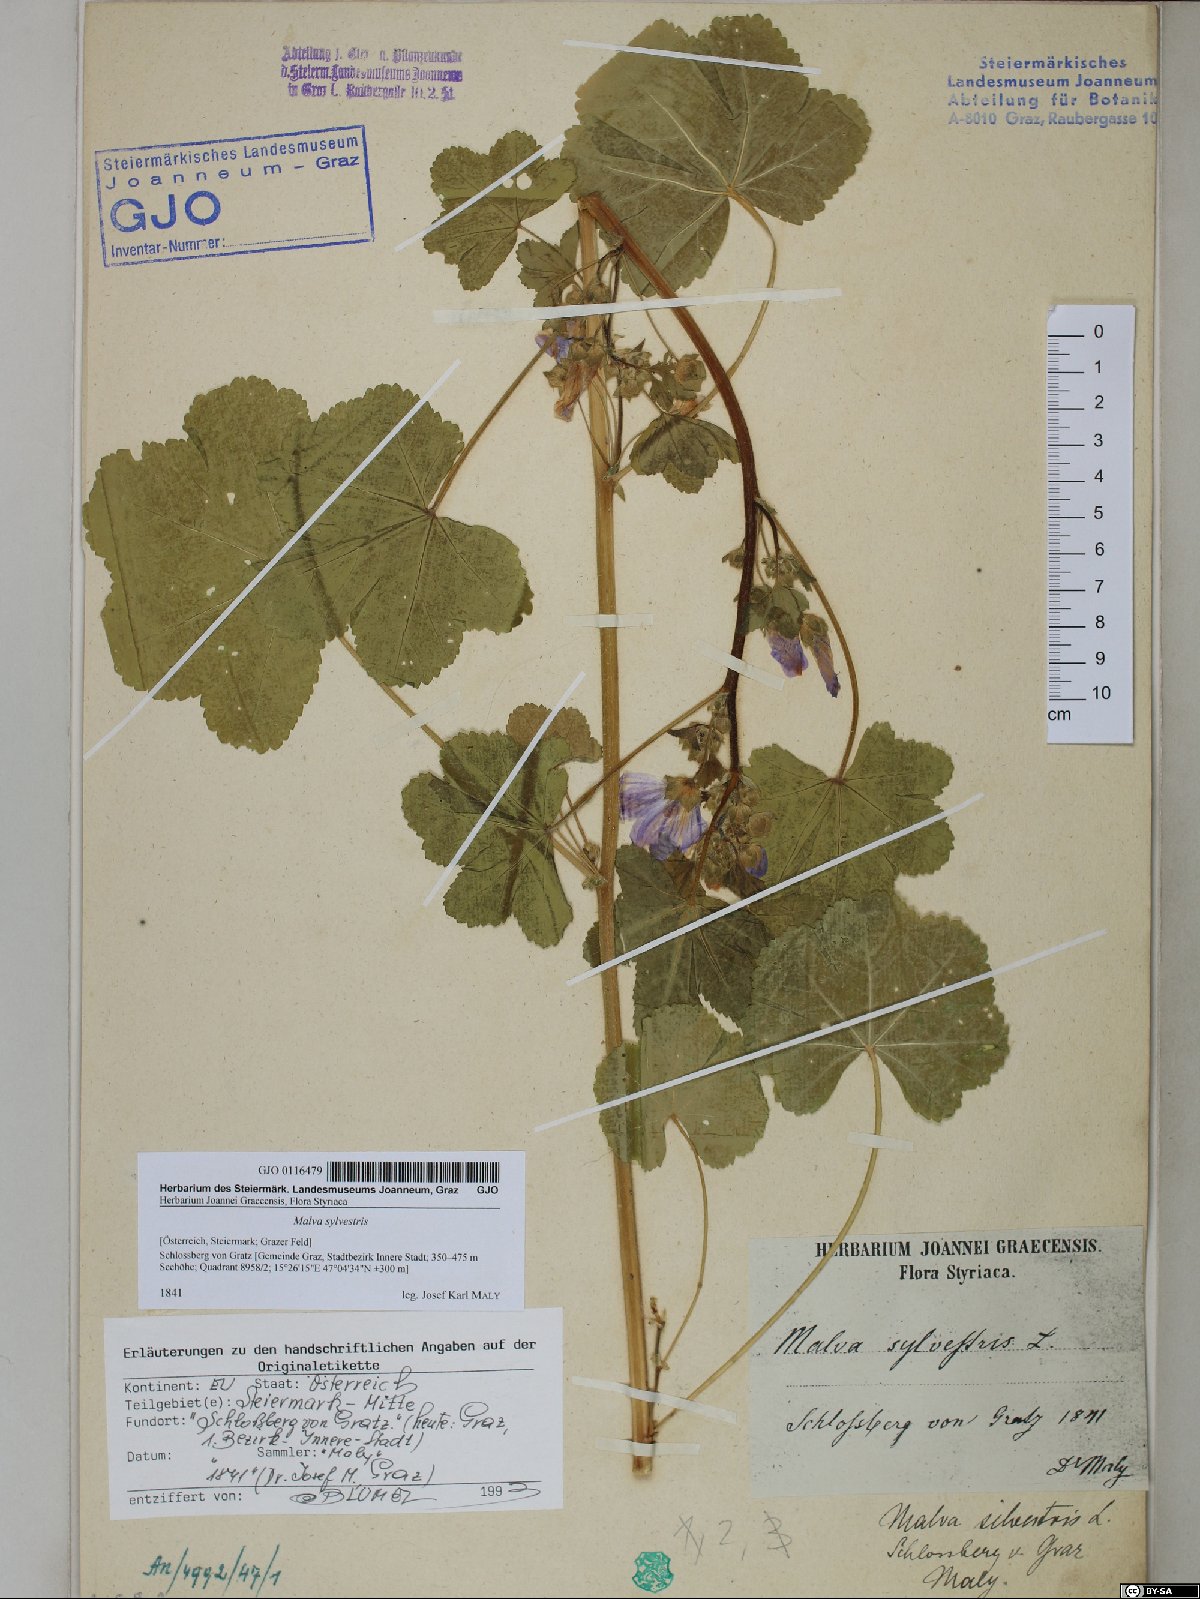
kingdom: Plantae
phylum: Tracheophyta
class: Magnoliopsida
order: Malvales
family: Malvaceae
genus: Malva
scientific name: Malva sylvestris
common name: Common mallow
